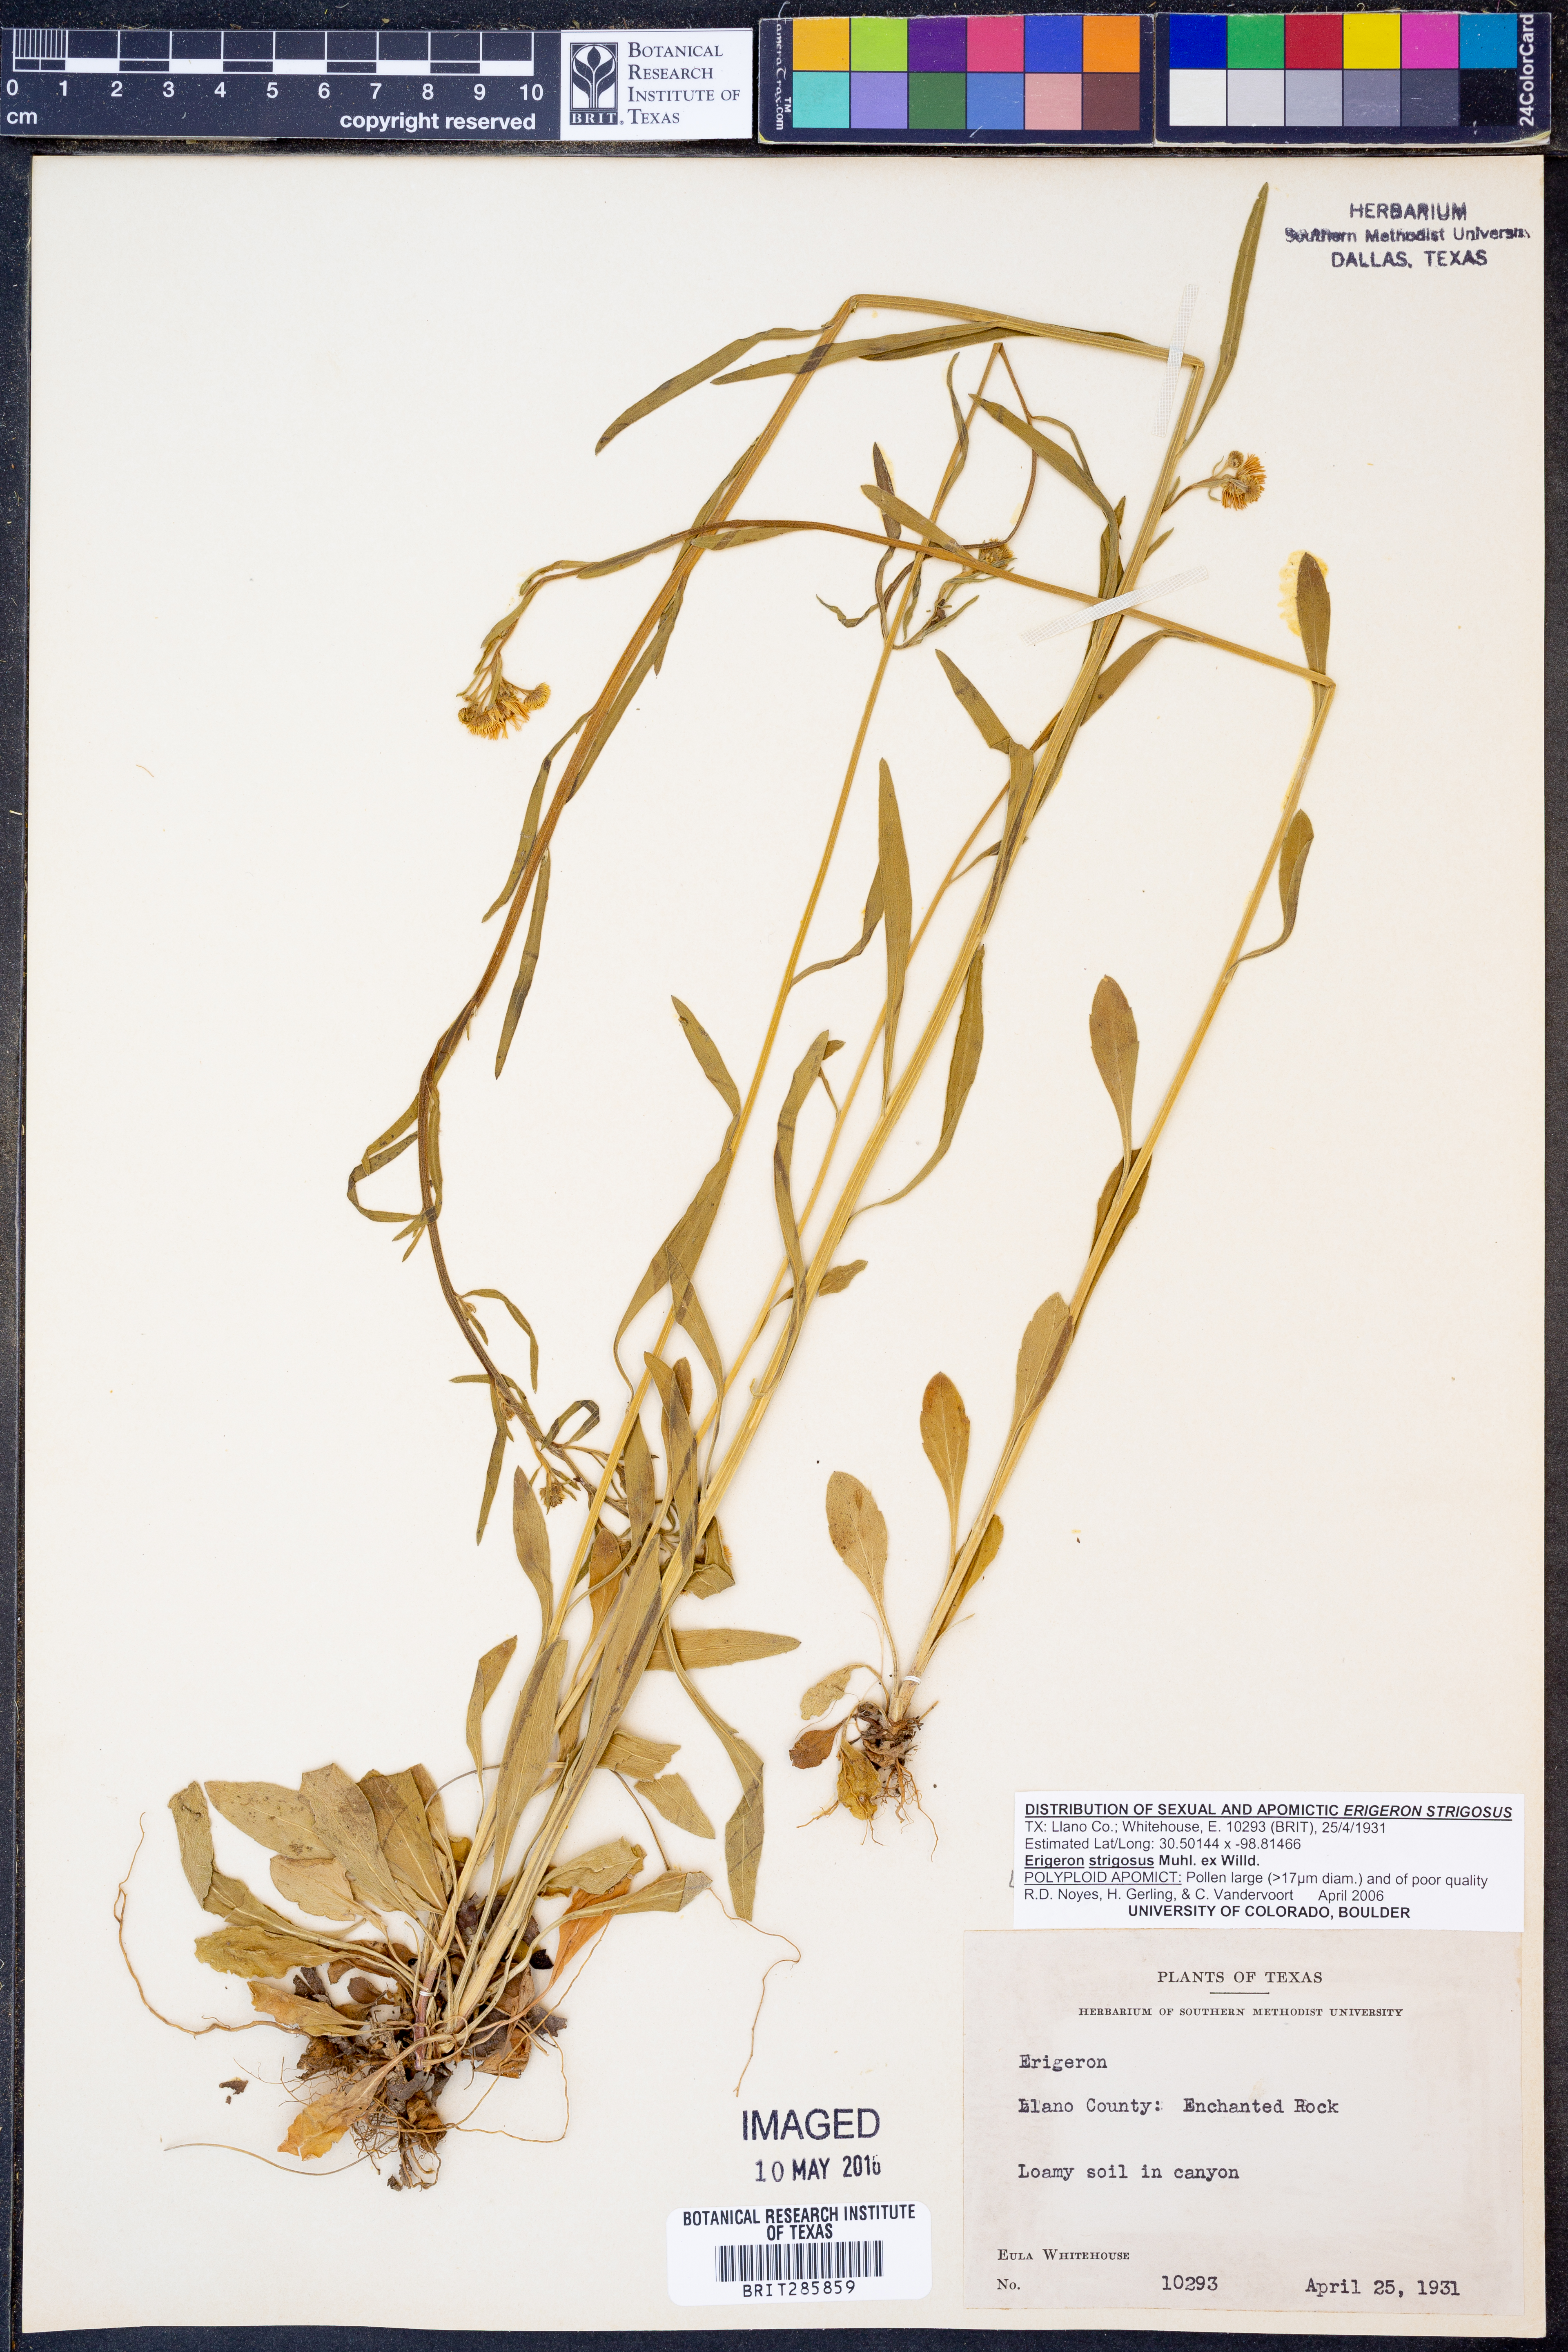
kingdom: Plantae
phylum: Tracheophyta
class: Magnoliopsida
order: Asterales
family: Asteraceae
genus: Erigeron
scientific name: Erigeron strigosus
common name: Common eastern fleabane
